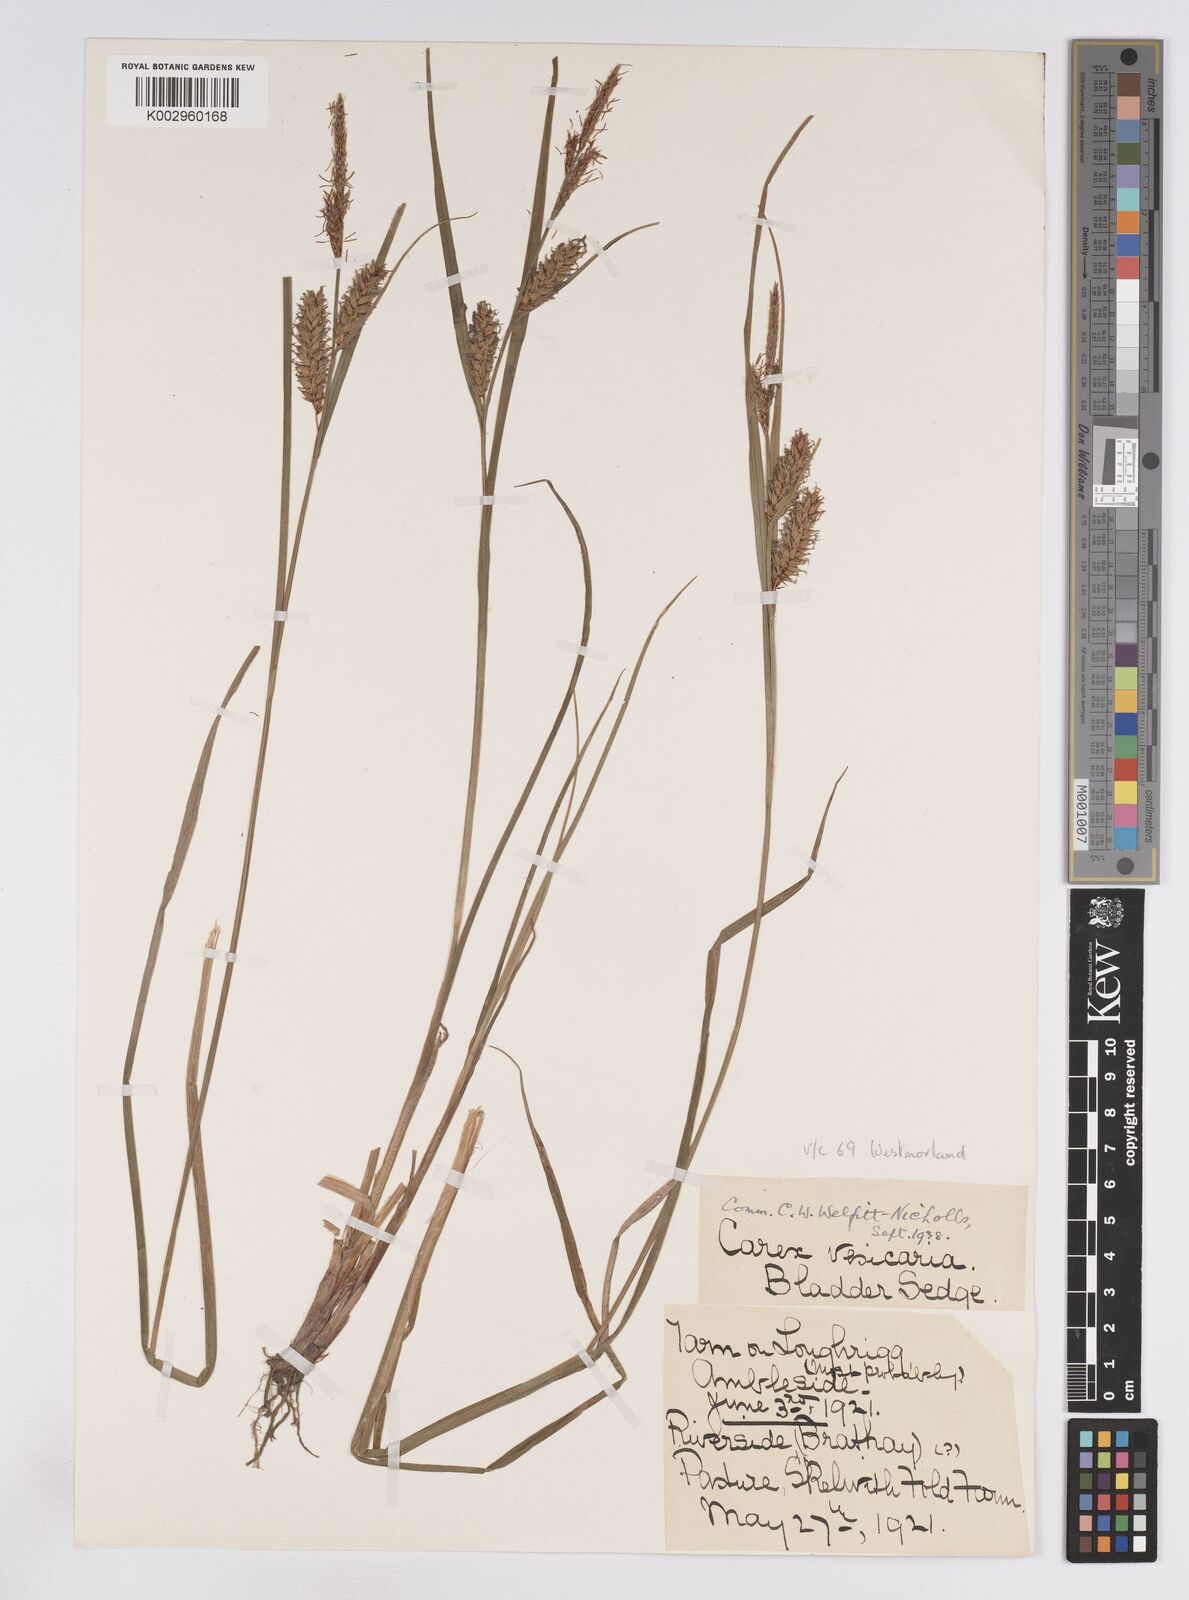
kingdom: Plantae
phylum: Tracheophyta
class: Liliopsida
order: Poales
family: Cyperaceae
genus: Carex
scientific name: Carex vesicaria
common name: Bladder-sedge
